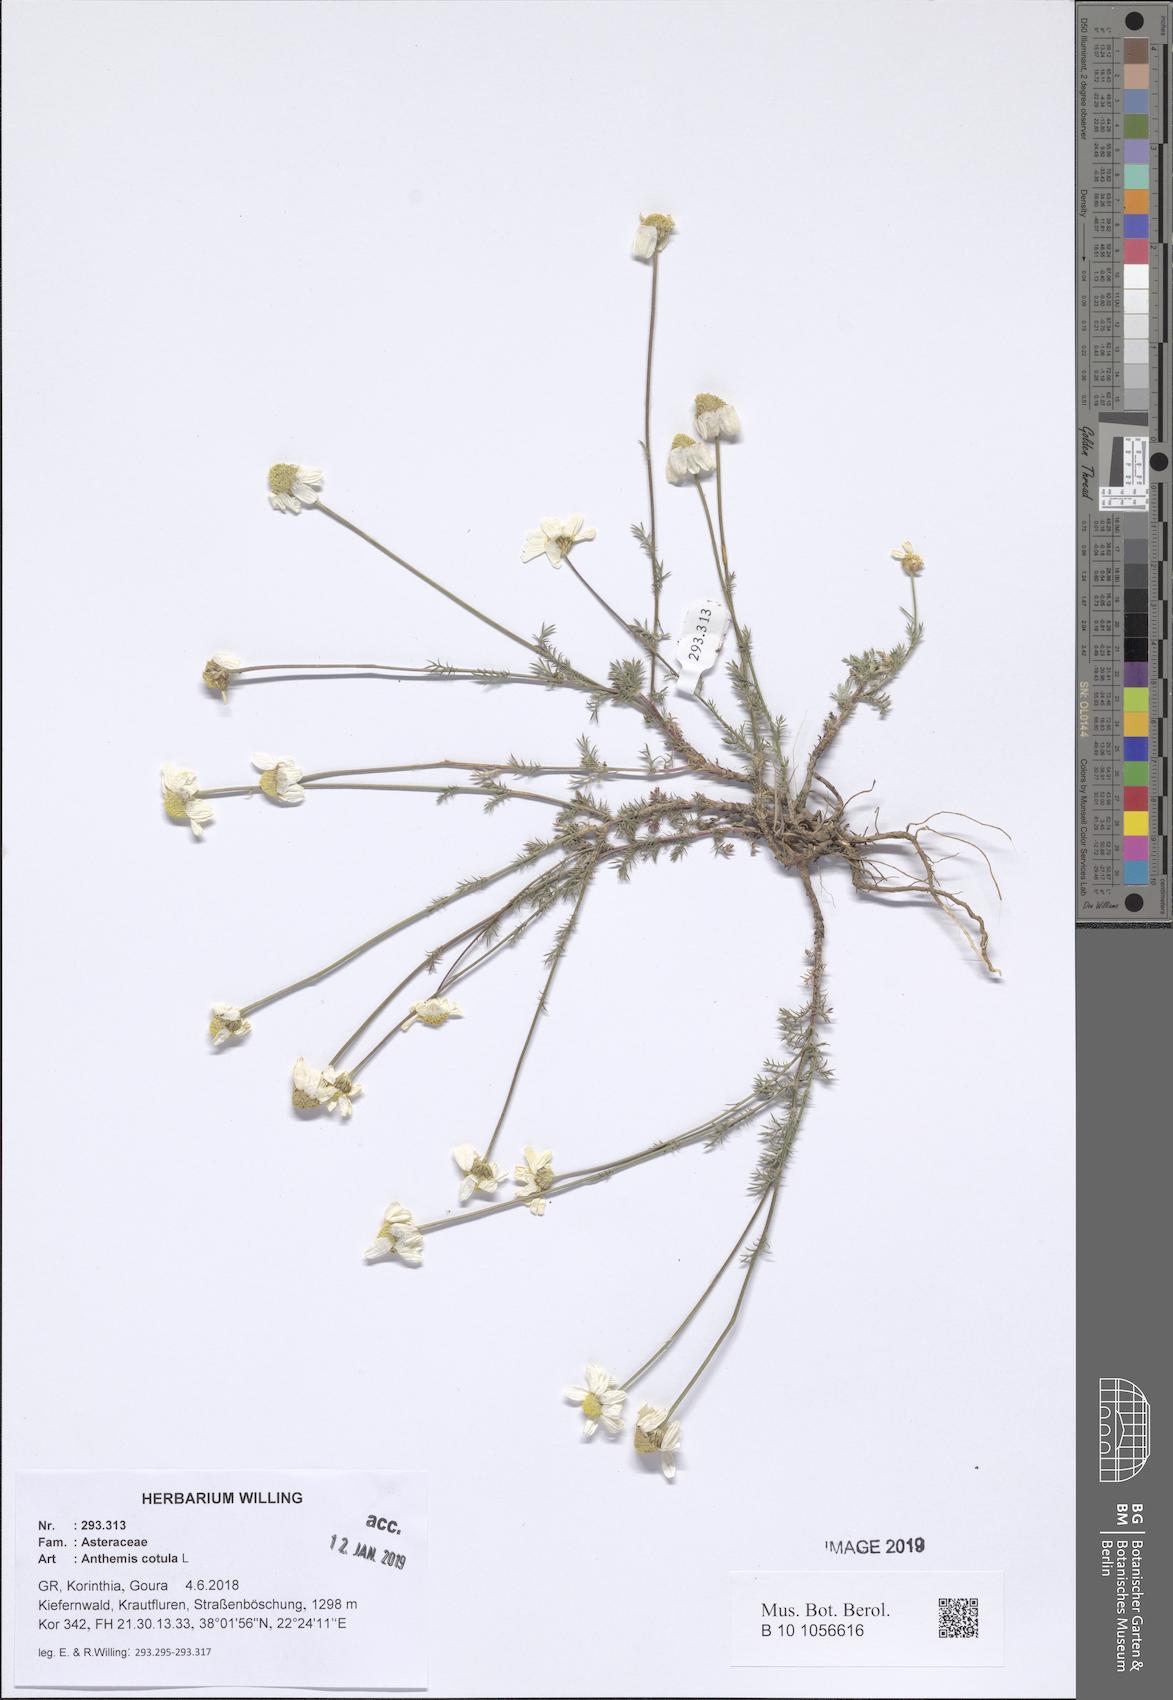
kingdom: Plantae
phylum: Tracheophyta
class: Magnoliopsida
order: Asterales
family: Asteraceae
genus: Anthemis
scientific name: Anthemis orientalis
